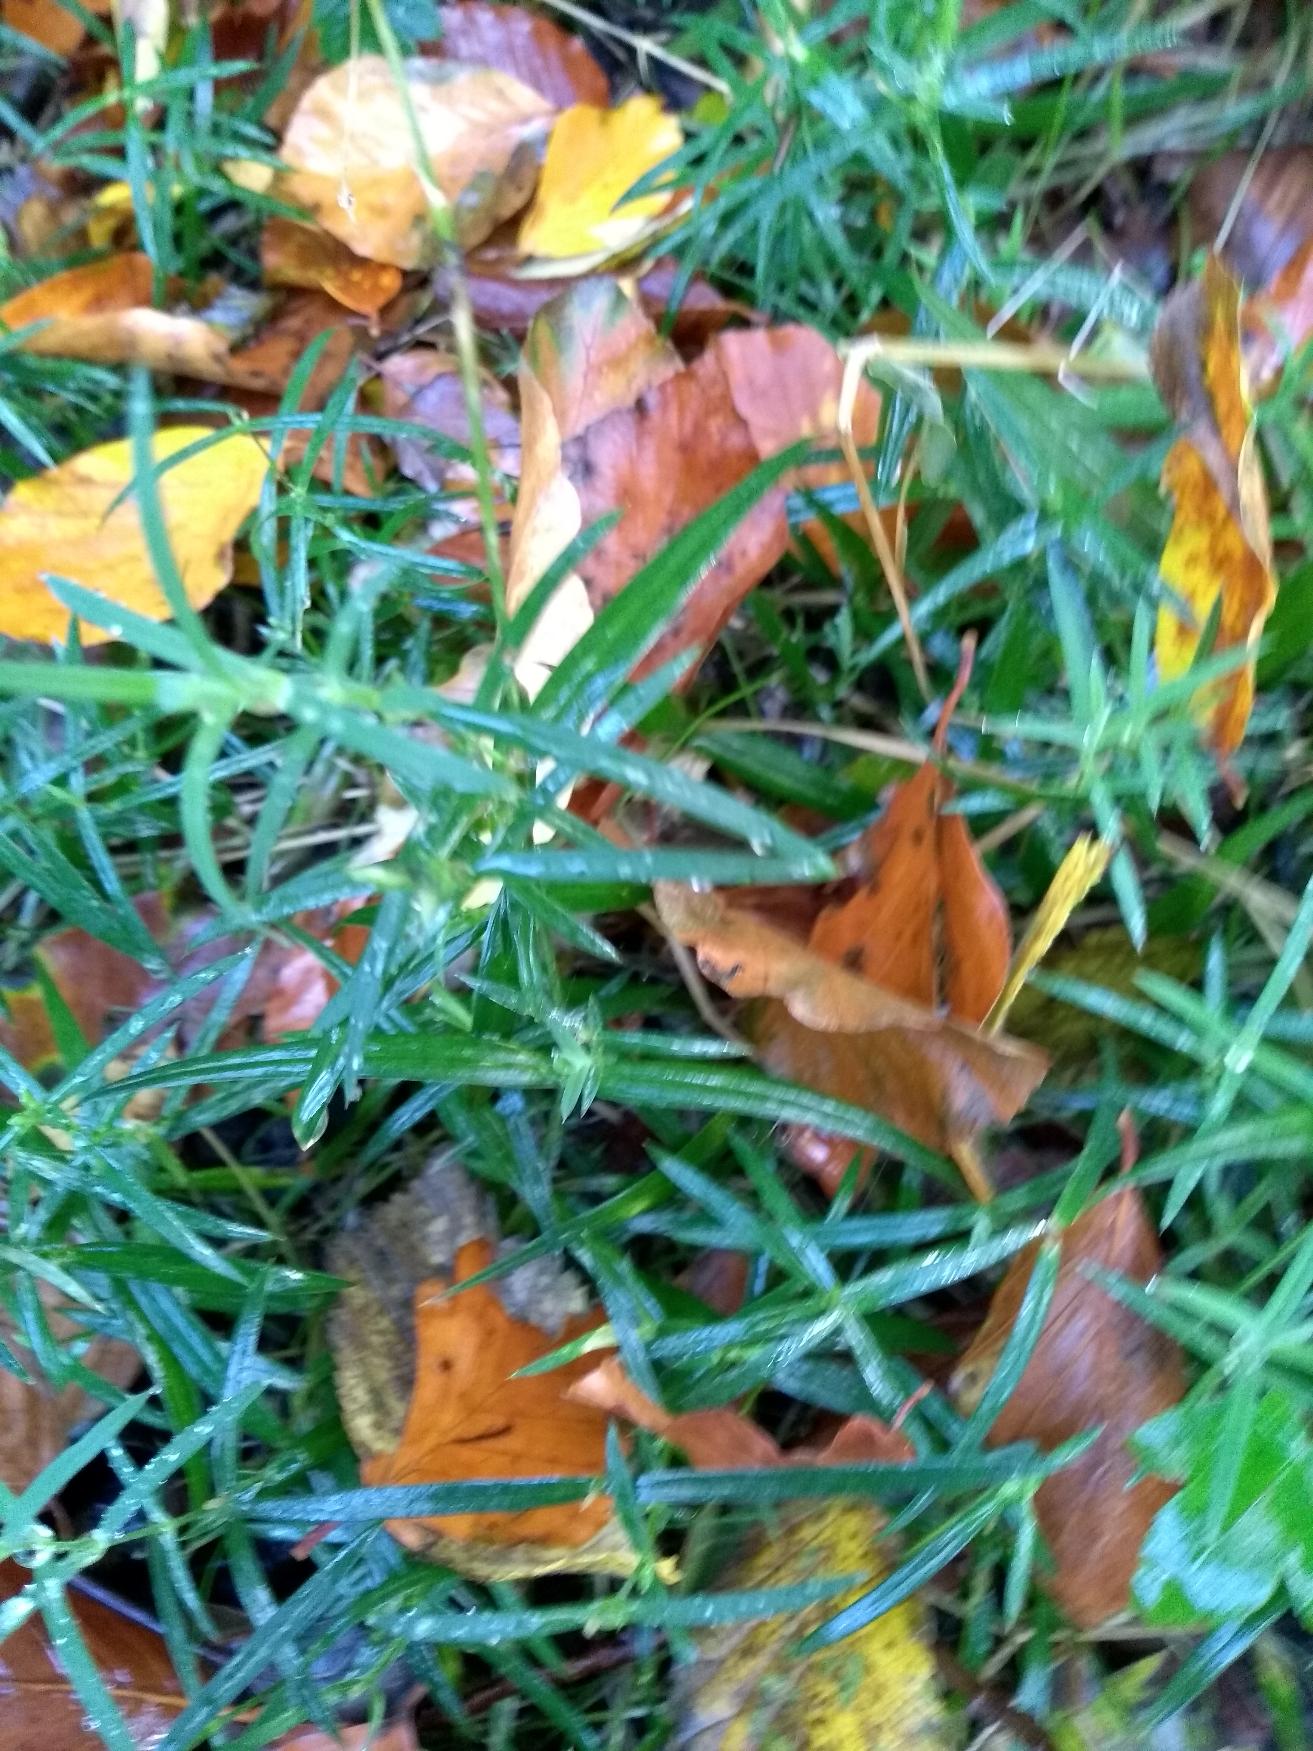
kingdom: Plantae
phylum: Tracheophyta
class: Magnoliopsida
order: Caryophyllales
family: Caryophyllaceae
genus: Rabelera
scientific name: Rabelera holostea
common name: Stor fladstjerne
